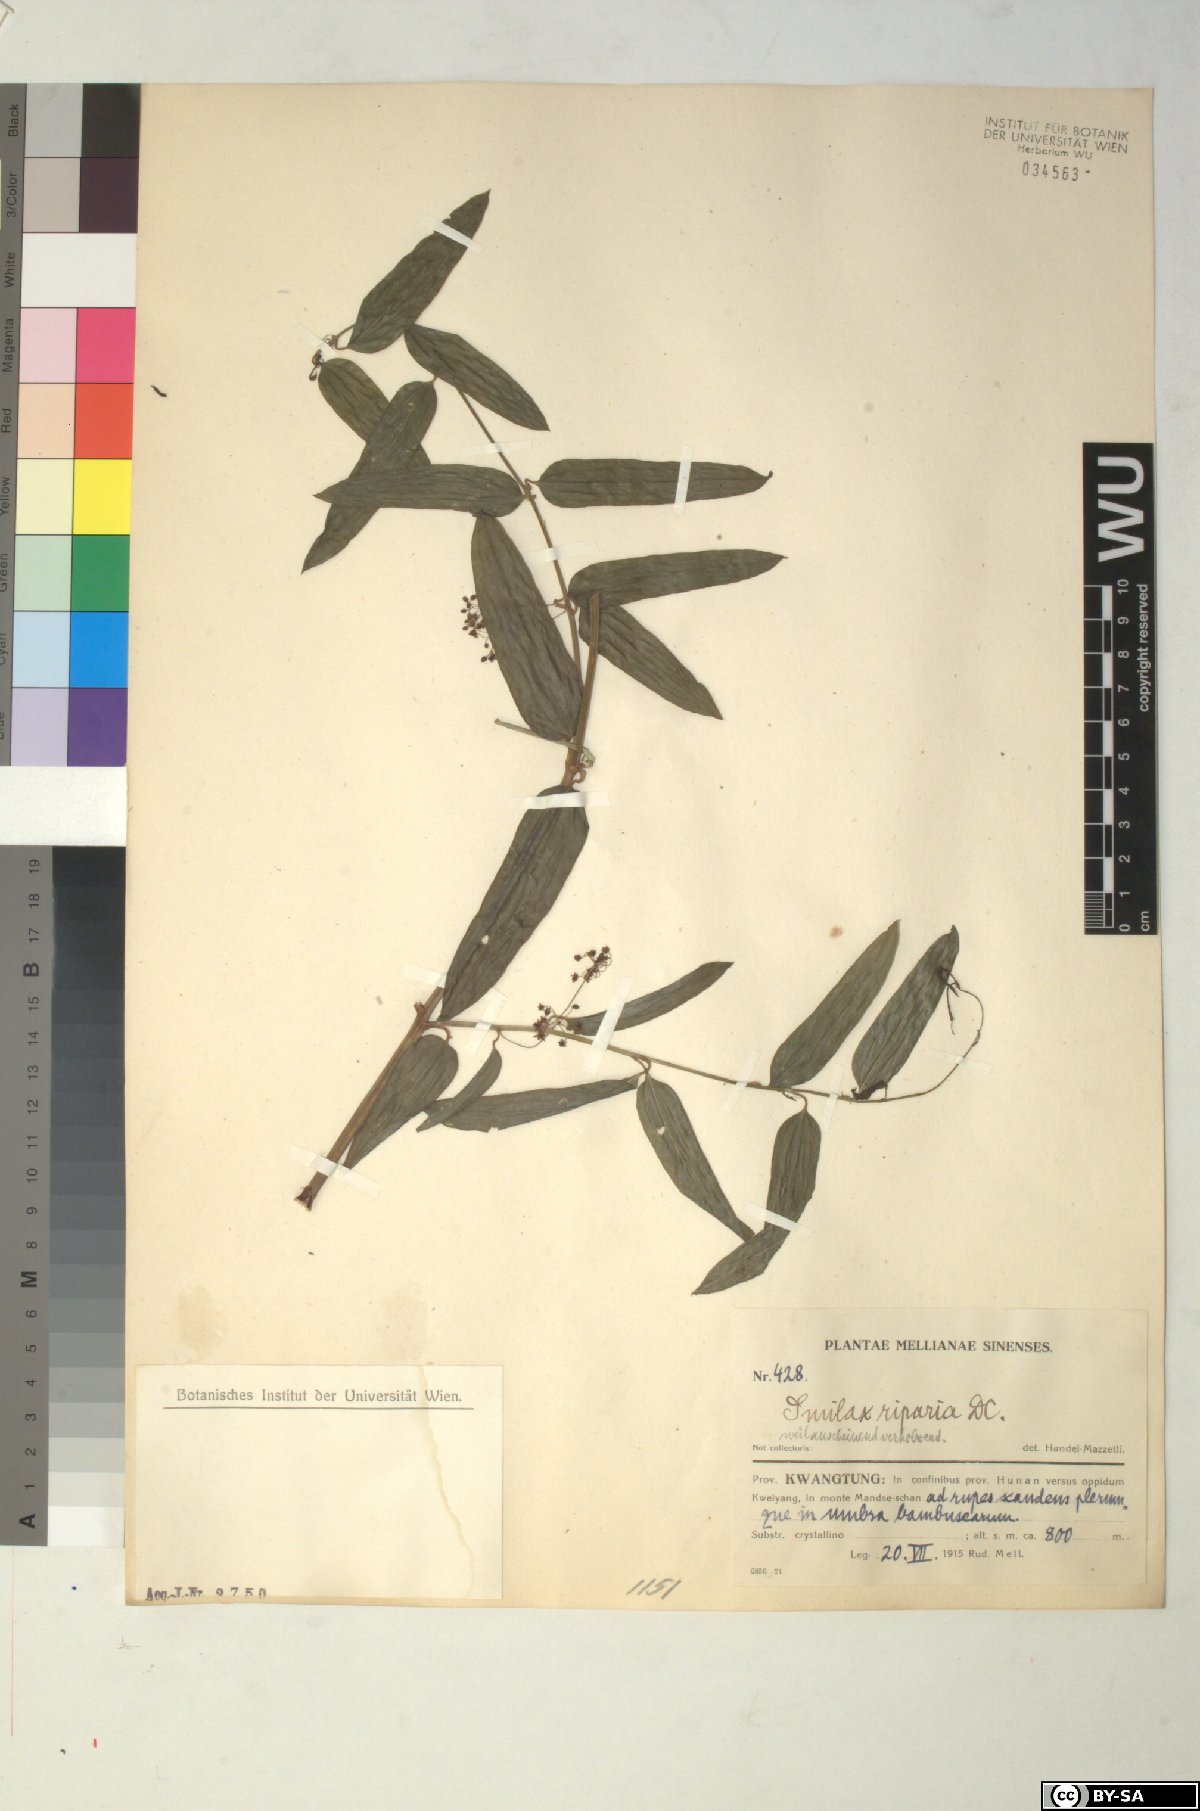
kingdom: Plantae
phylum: Tracheophyta
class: Liliopsida
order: Liliales
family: Smilacaceae
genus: Smilax
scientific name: Smilax riparia
